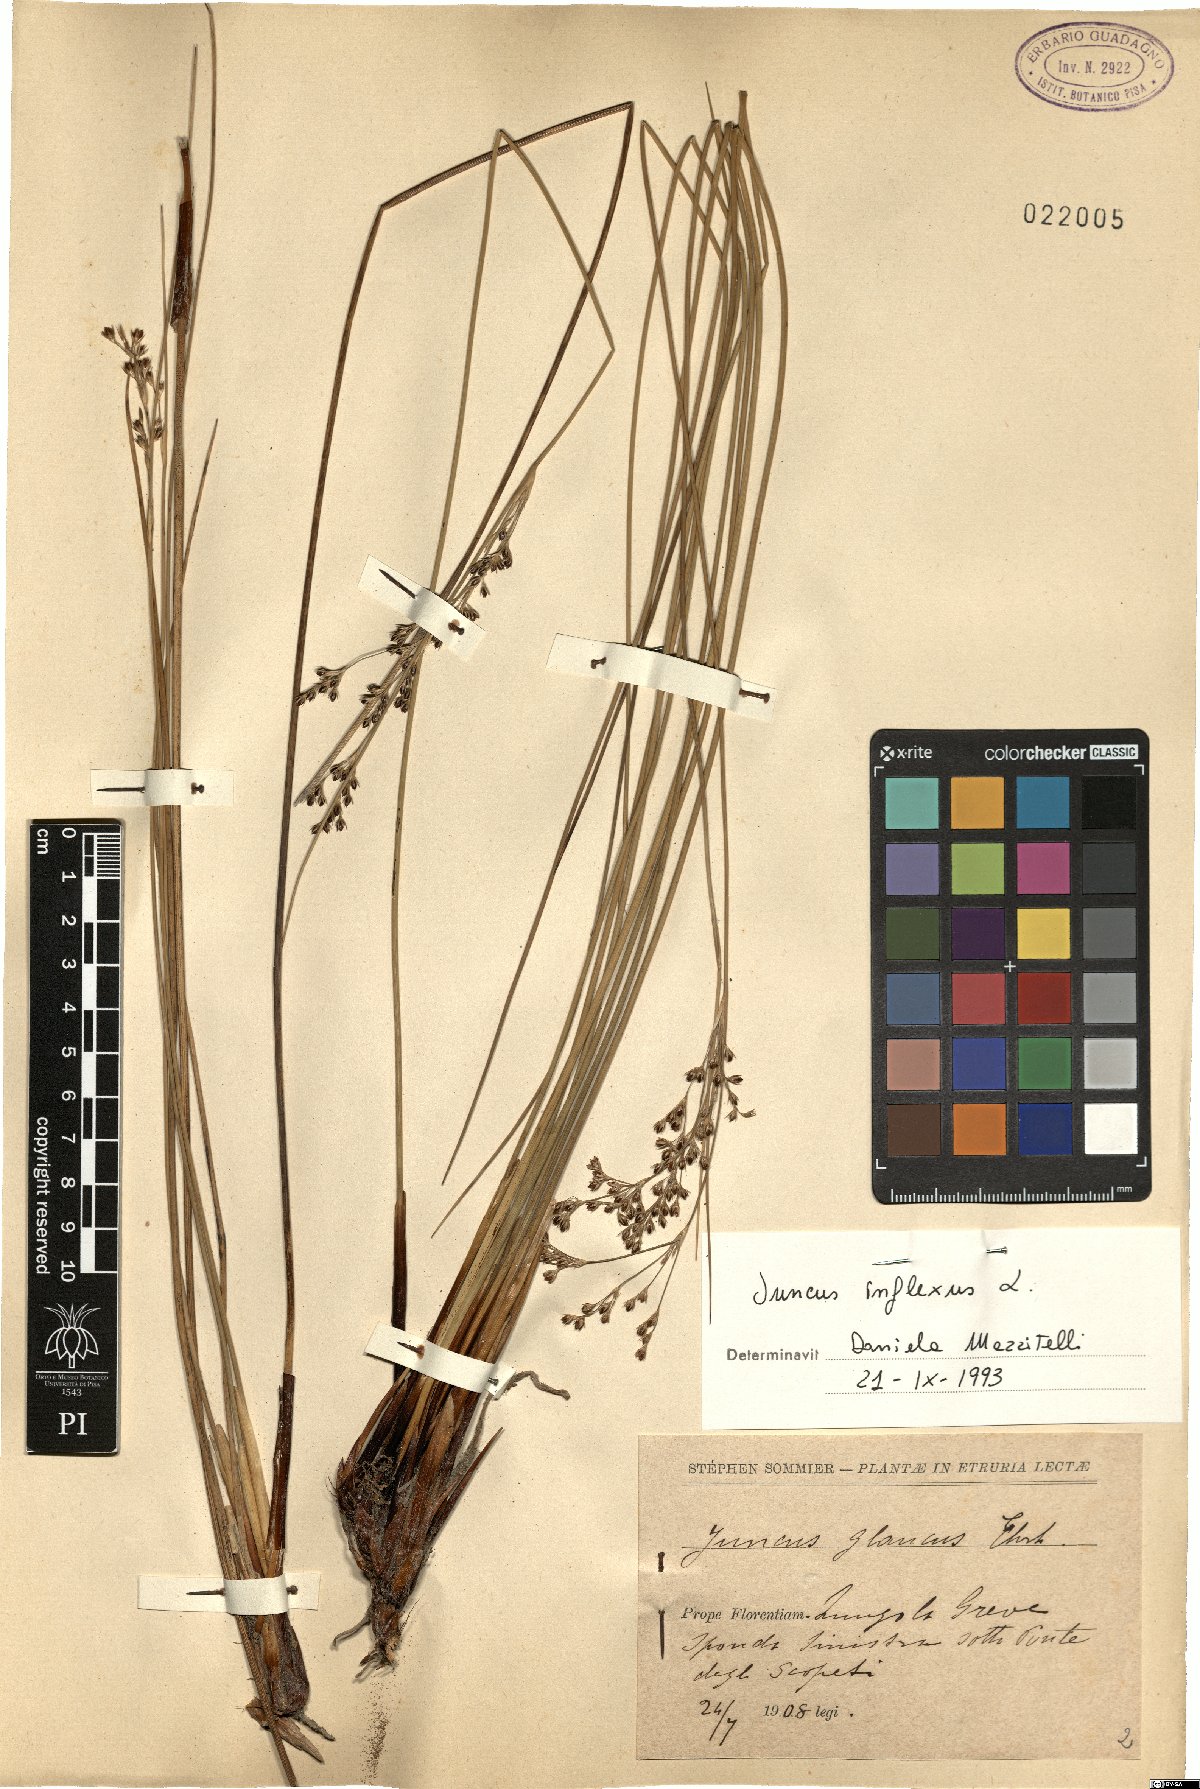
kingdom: Plantae
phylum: Tracheophyta
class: Liliopsida
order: Poales
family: Juncaceae
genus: Juncus
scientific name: Juncus inflexus
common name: Hard rush
